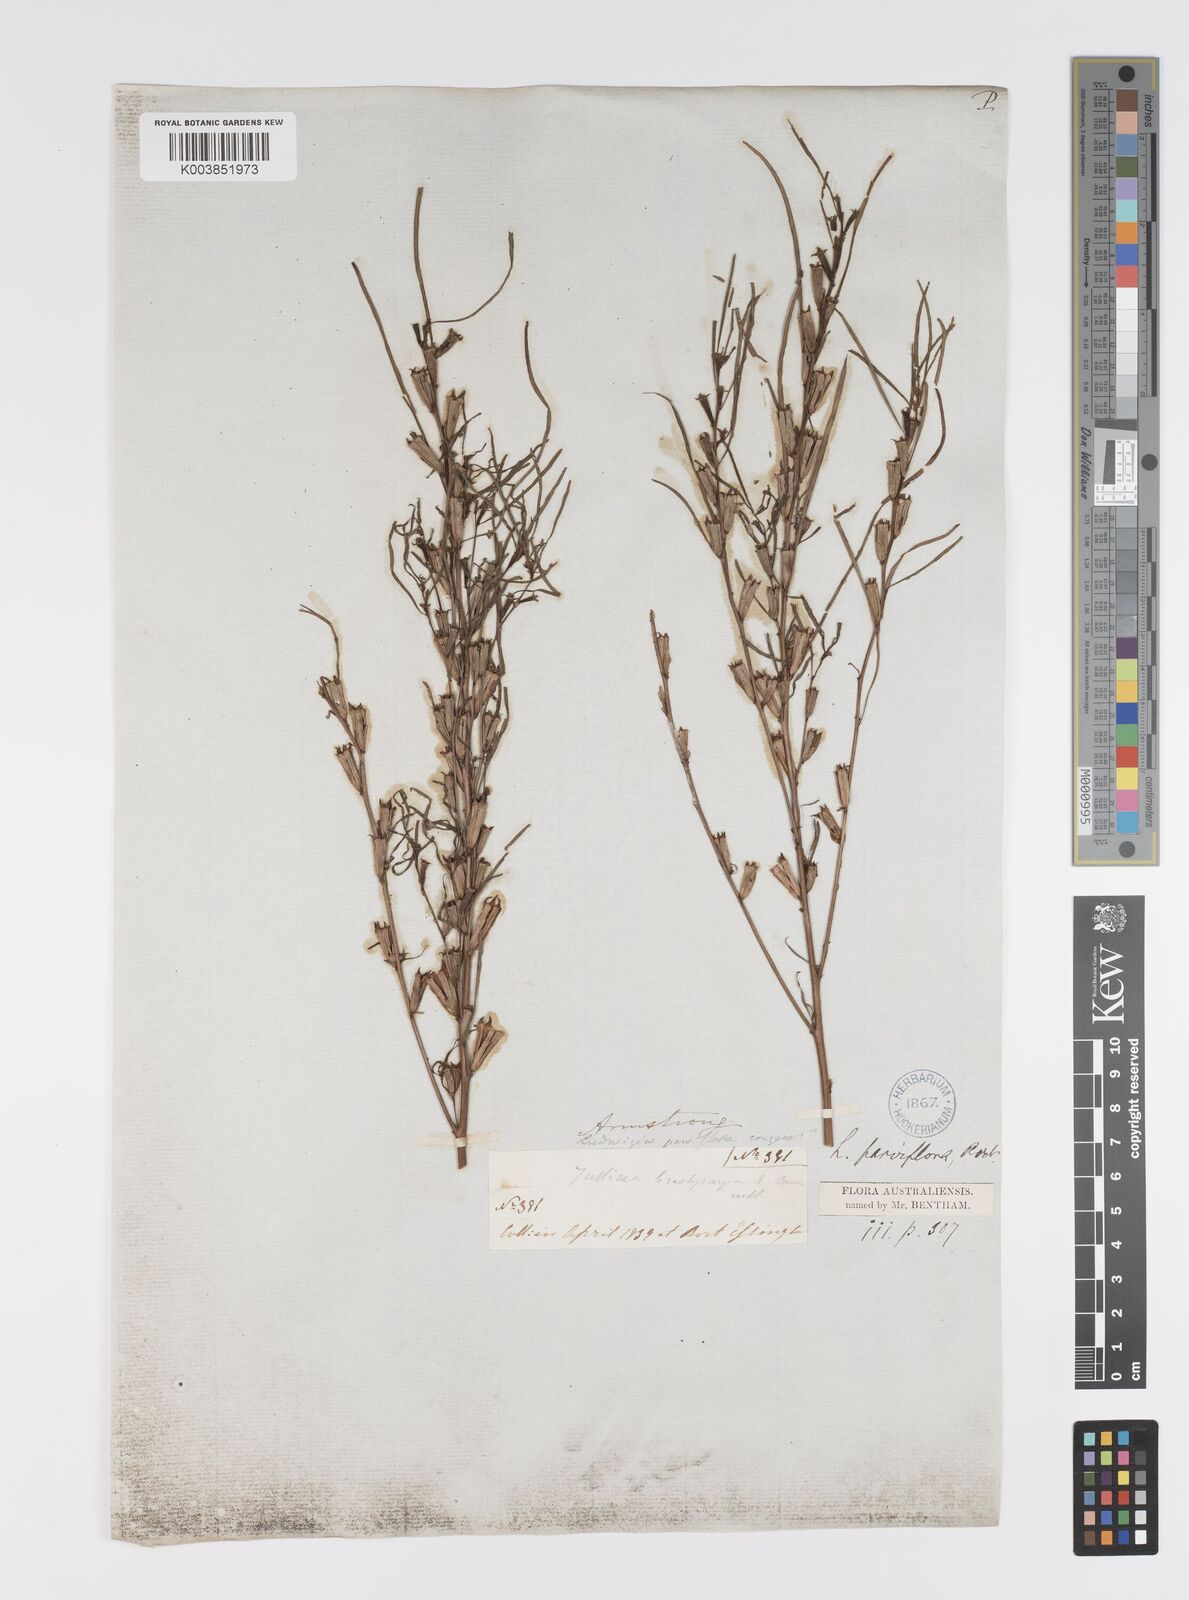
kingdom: Plantae
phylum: Tracheophyta
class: Magnoliopsida
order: Myrtales
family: Onagraceae
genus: Ludwigia
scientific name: Ludwigia perennis
